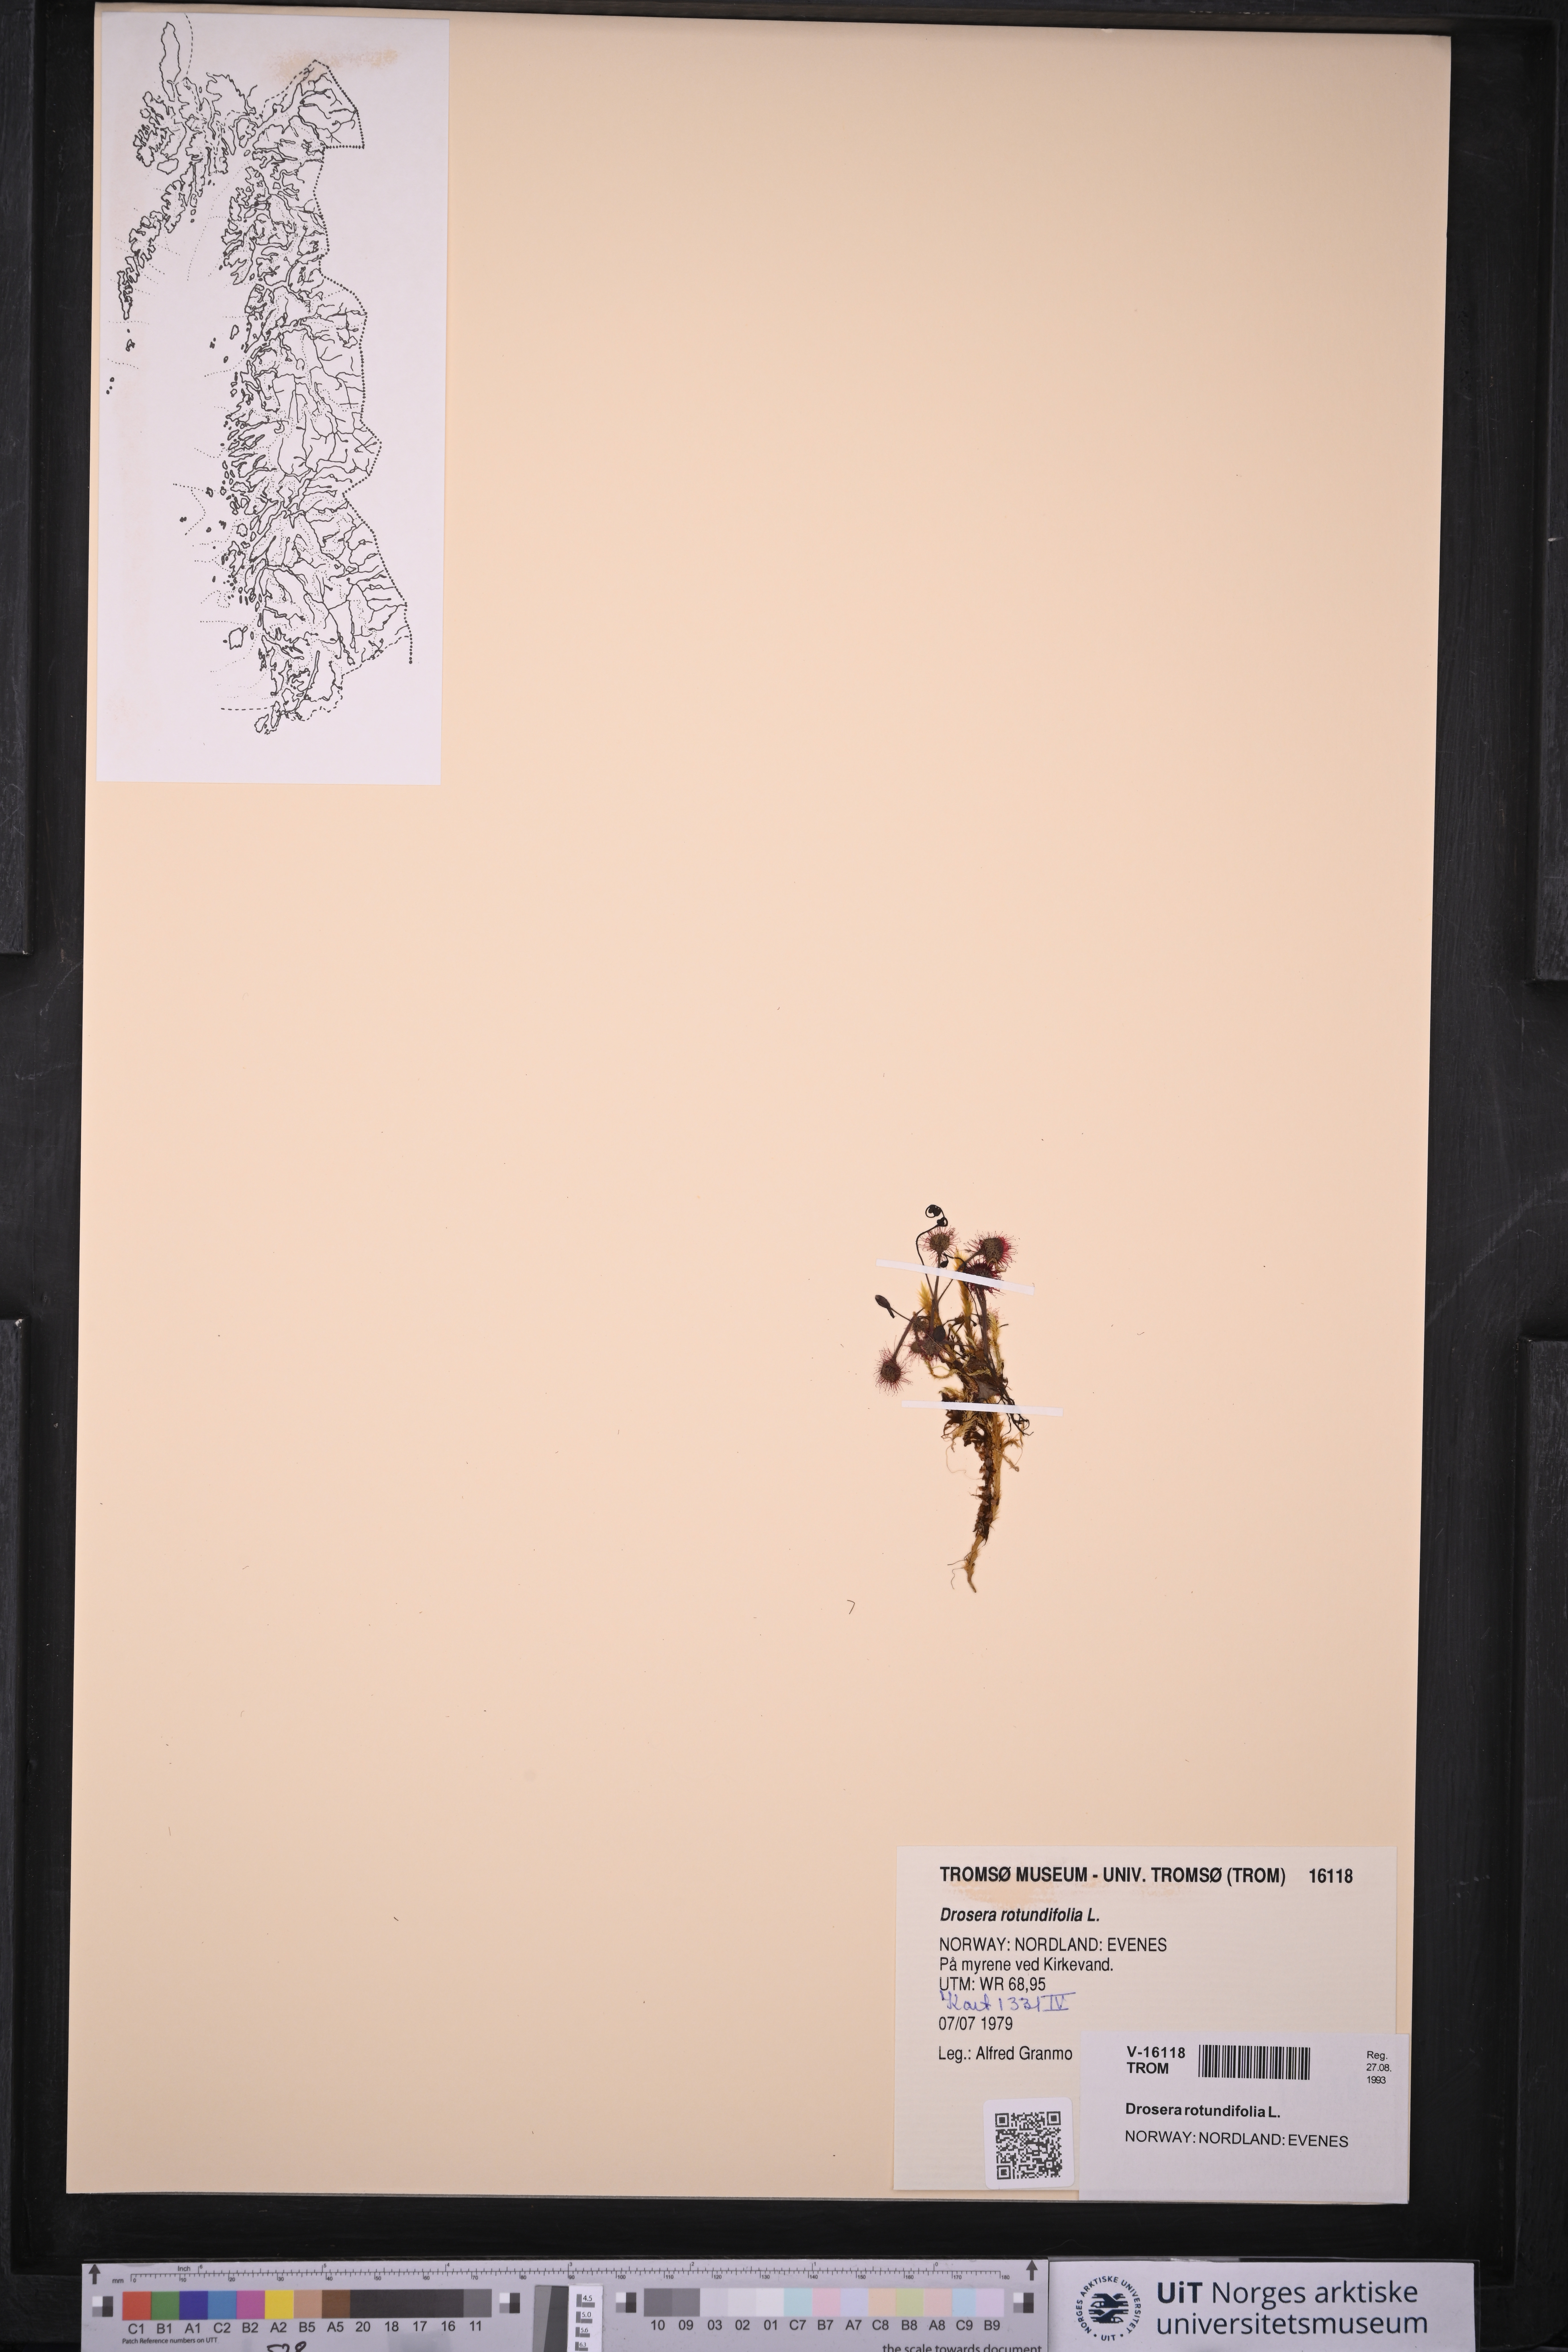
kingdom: Plantae
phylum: Tracheophyta
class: Magnoliopsida
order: Caryophyllales
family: Droseraceae
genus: Drosera
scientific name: Drosera rotundifolia
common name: Round-leaved sundew
